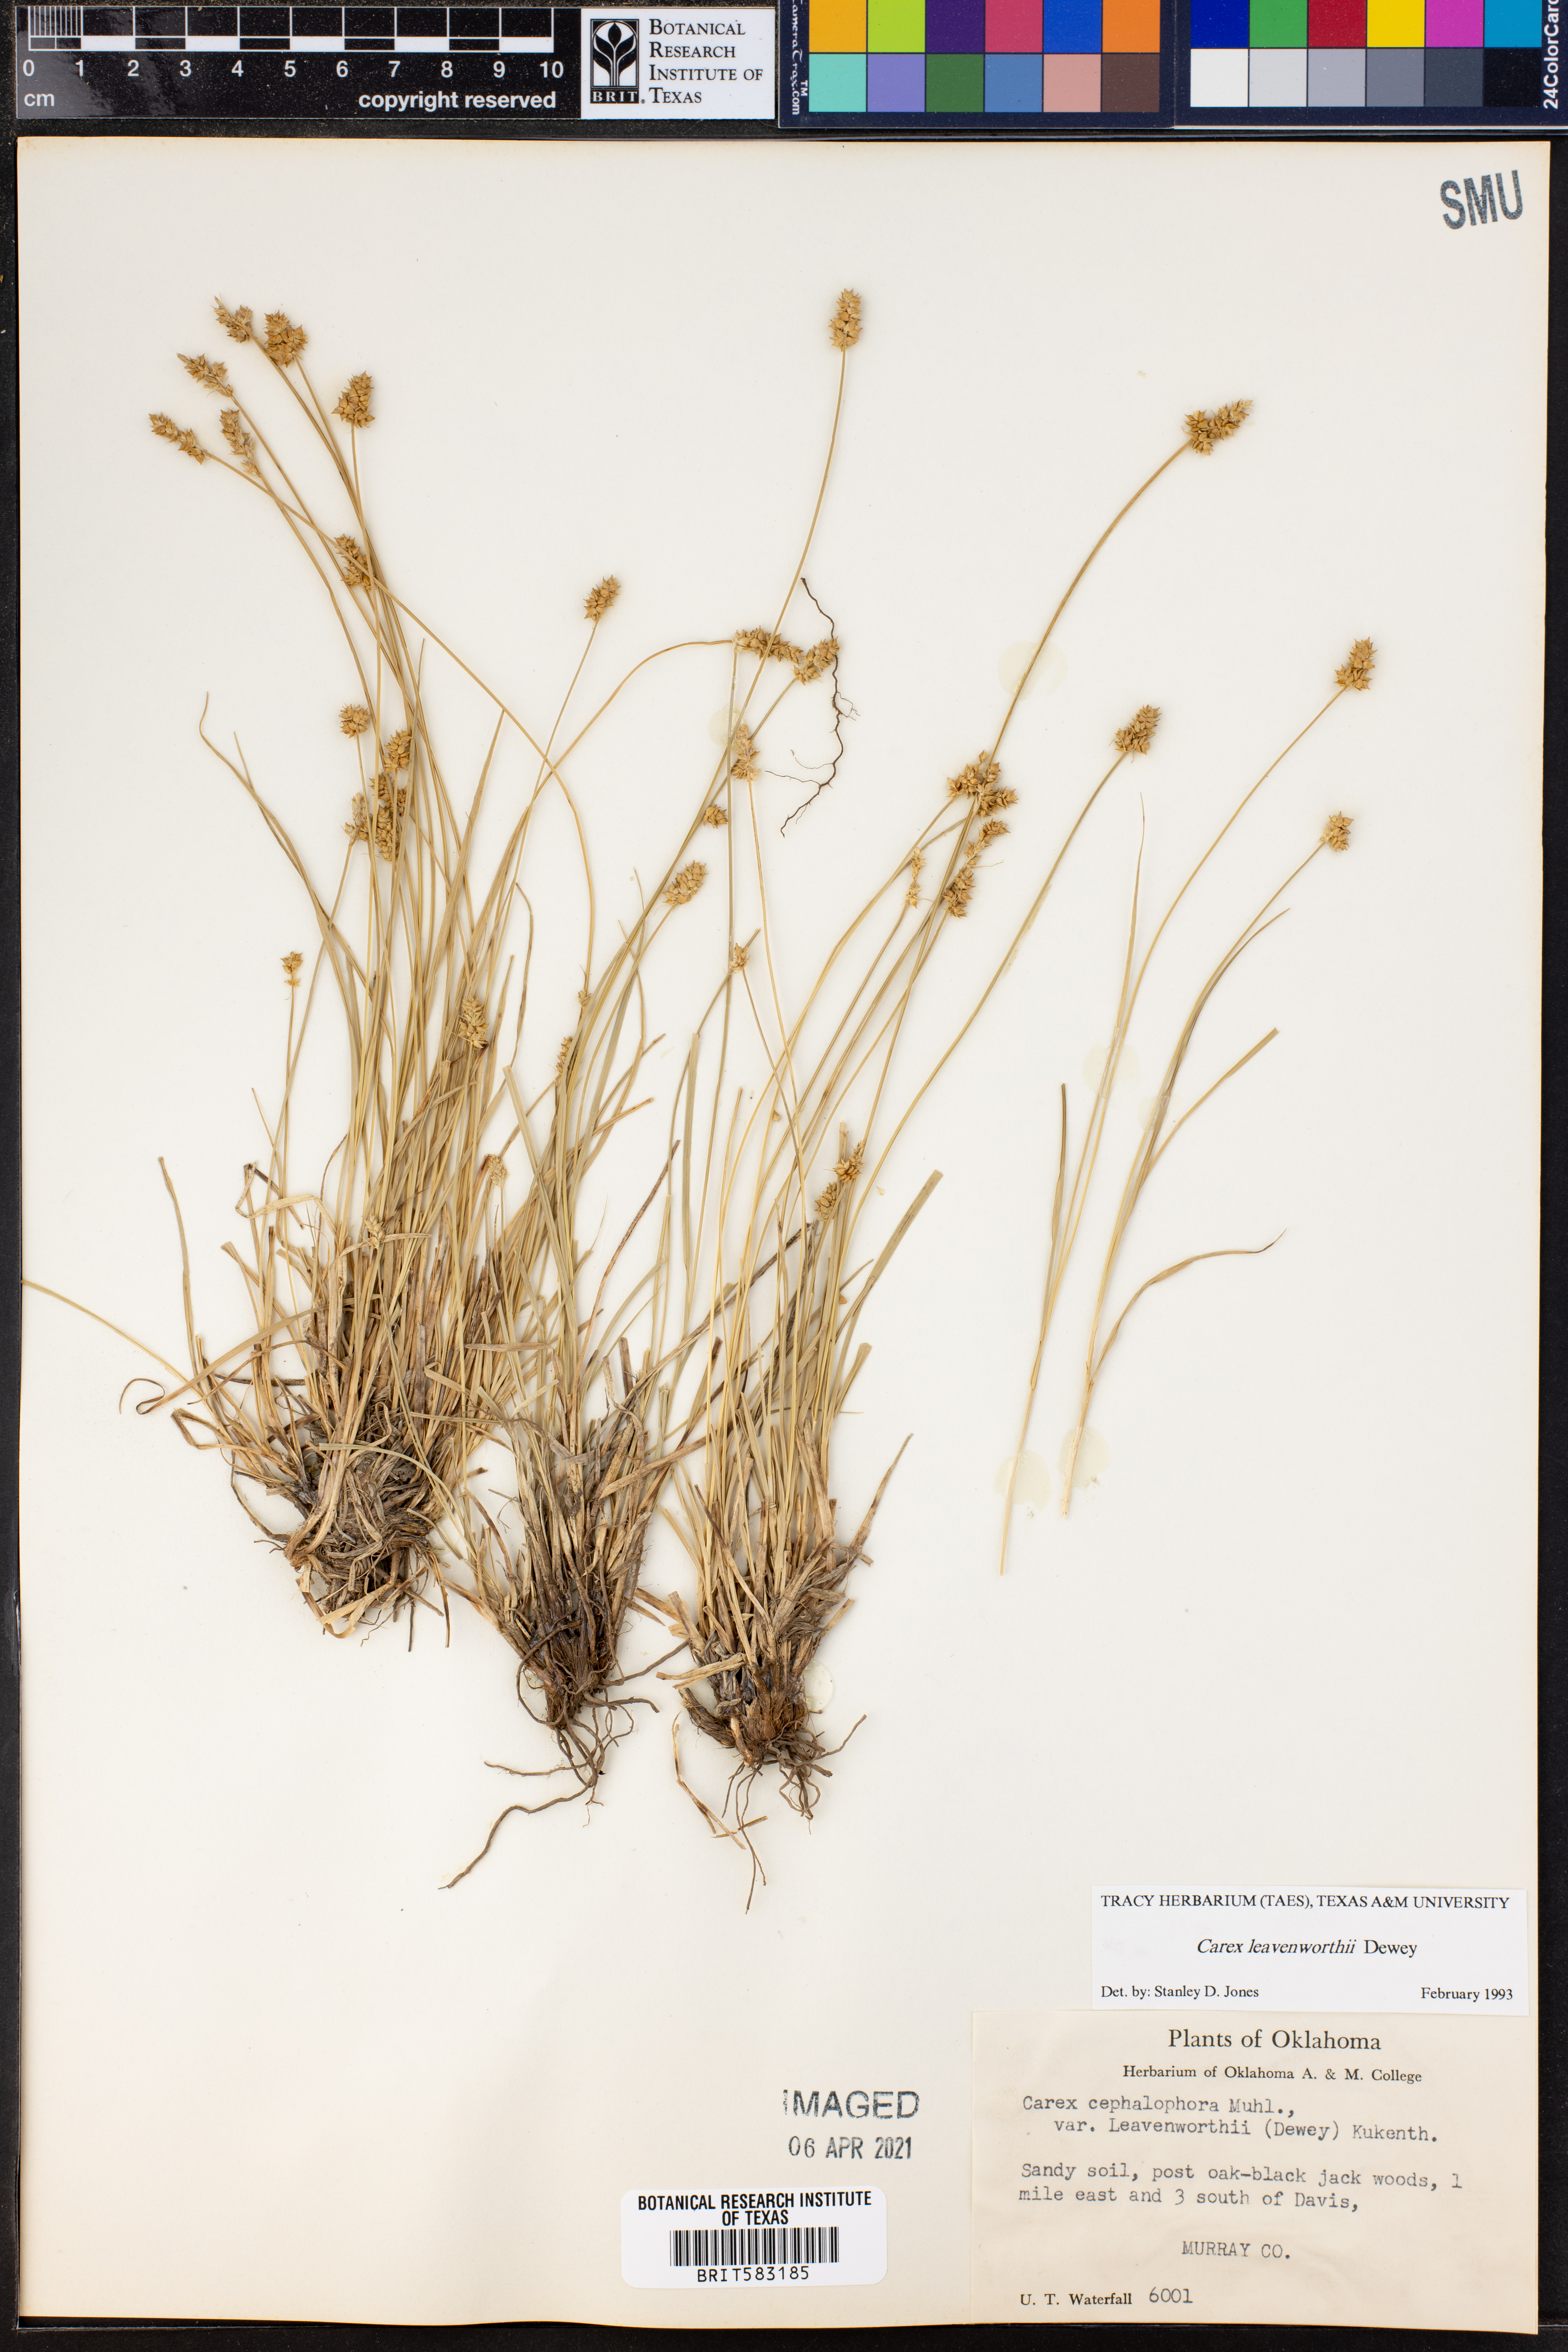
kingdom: Plantae
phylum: Tracheophyta
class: Liliopsida
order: Poales
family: Cyperaceae
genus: Carex
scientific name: Carex leavenworthii
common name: Leavenworth's bracted sedge
